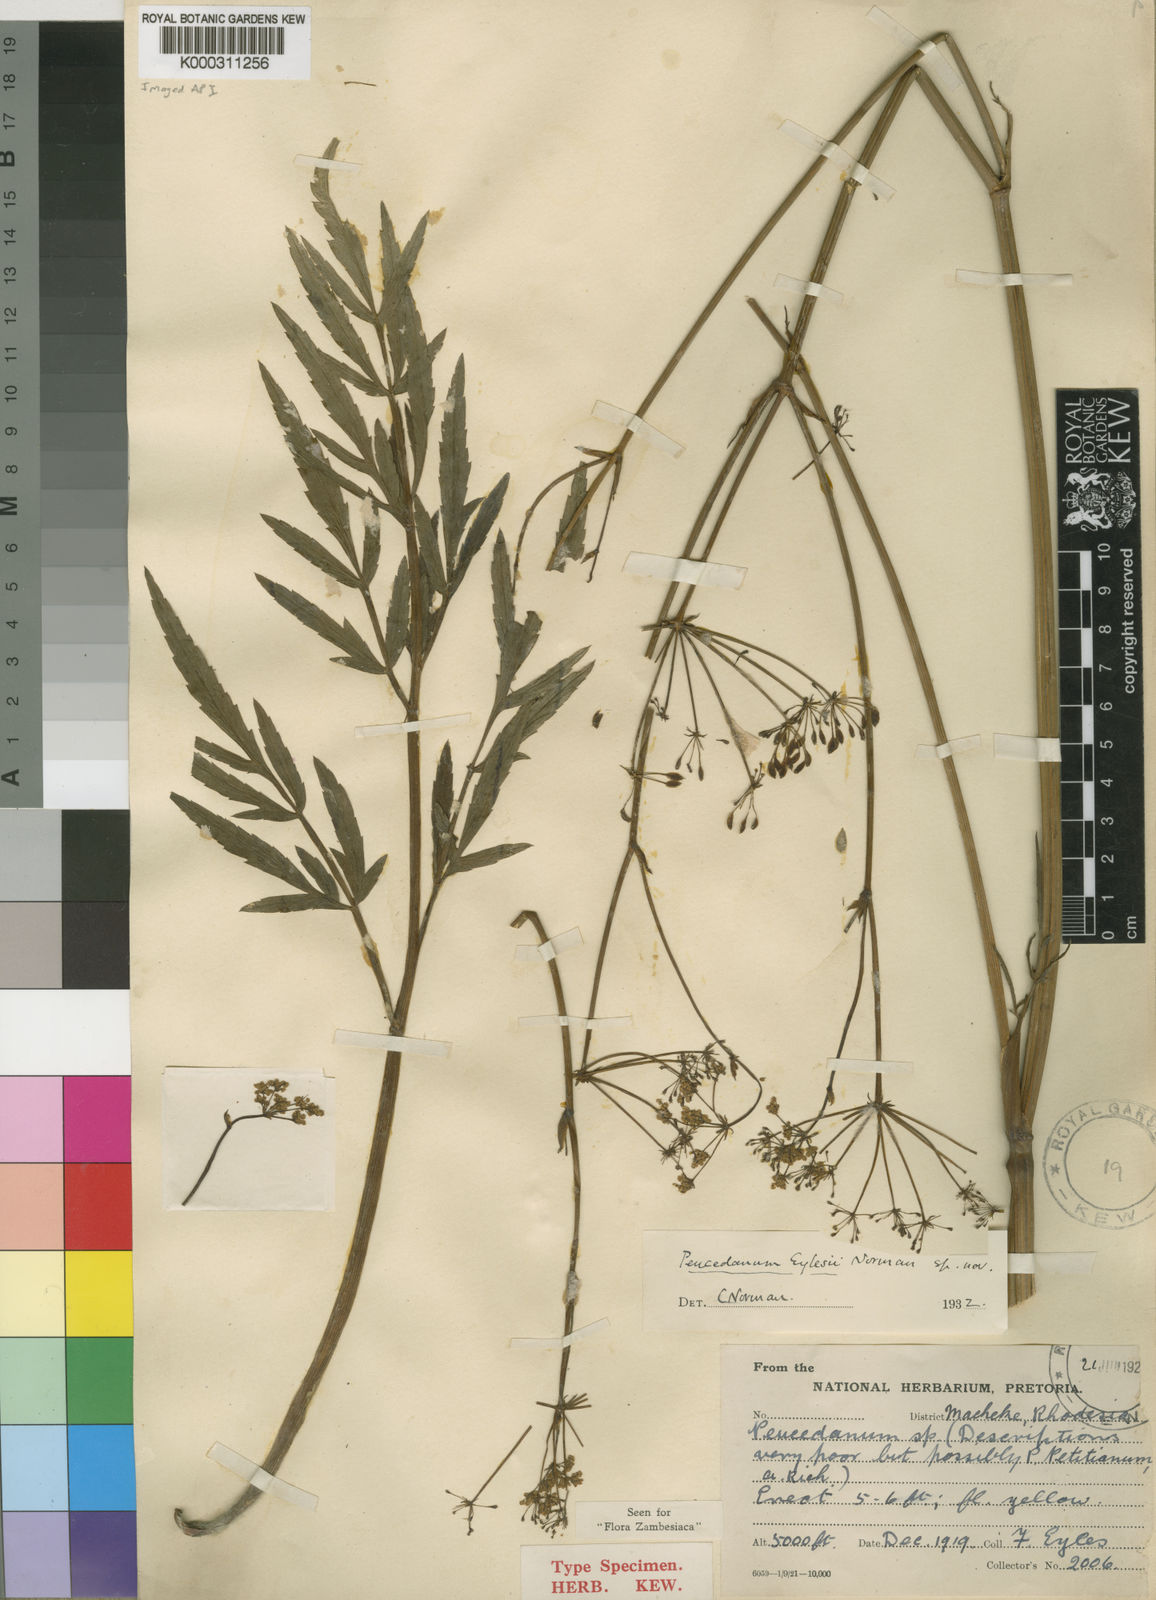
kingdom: Plantae
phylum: Tracheophyta
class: Magnoliopsida
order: Apiales
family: Apiaceae
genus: Afrosciadium
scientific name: Afrosciadium eylesii
